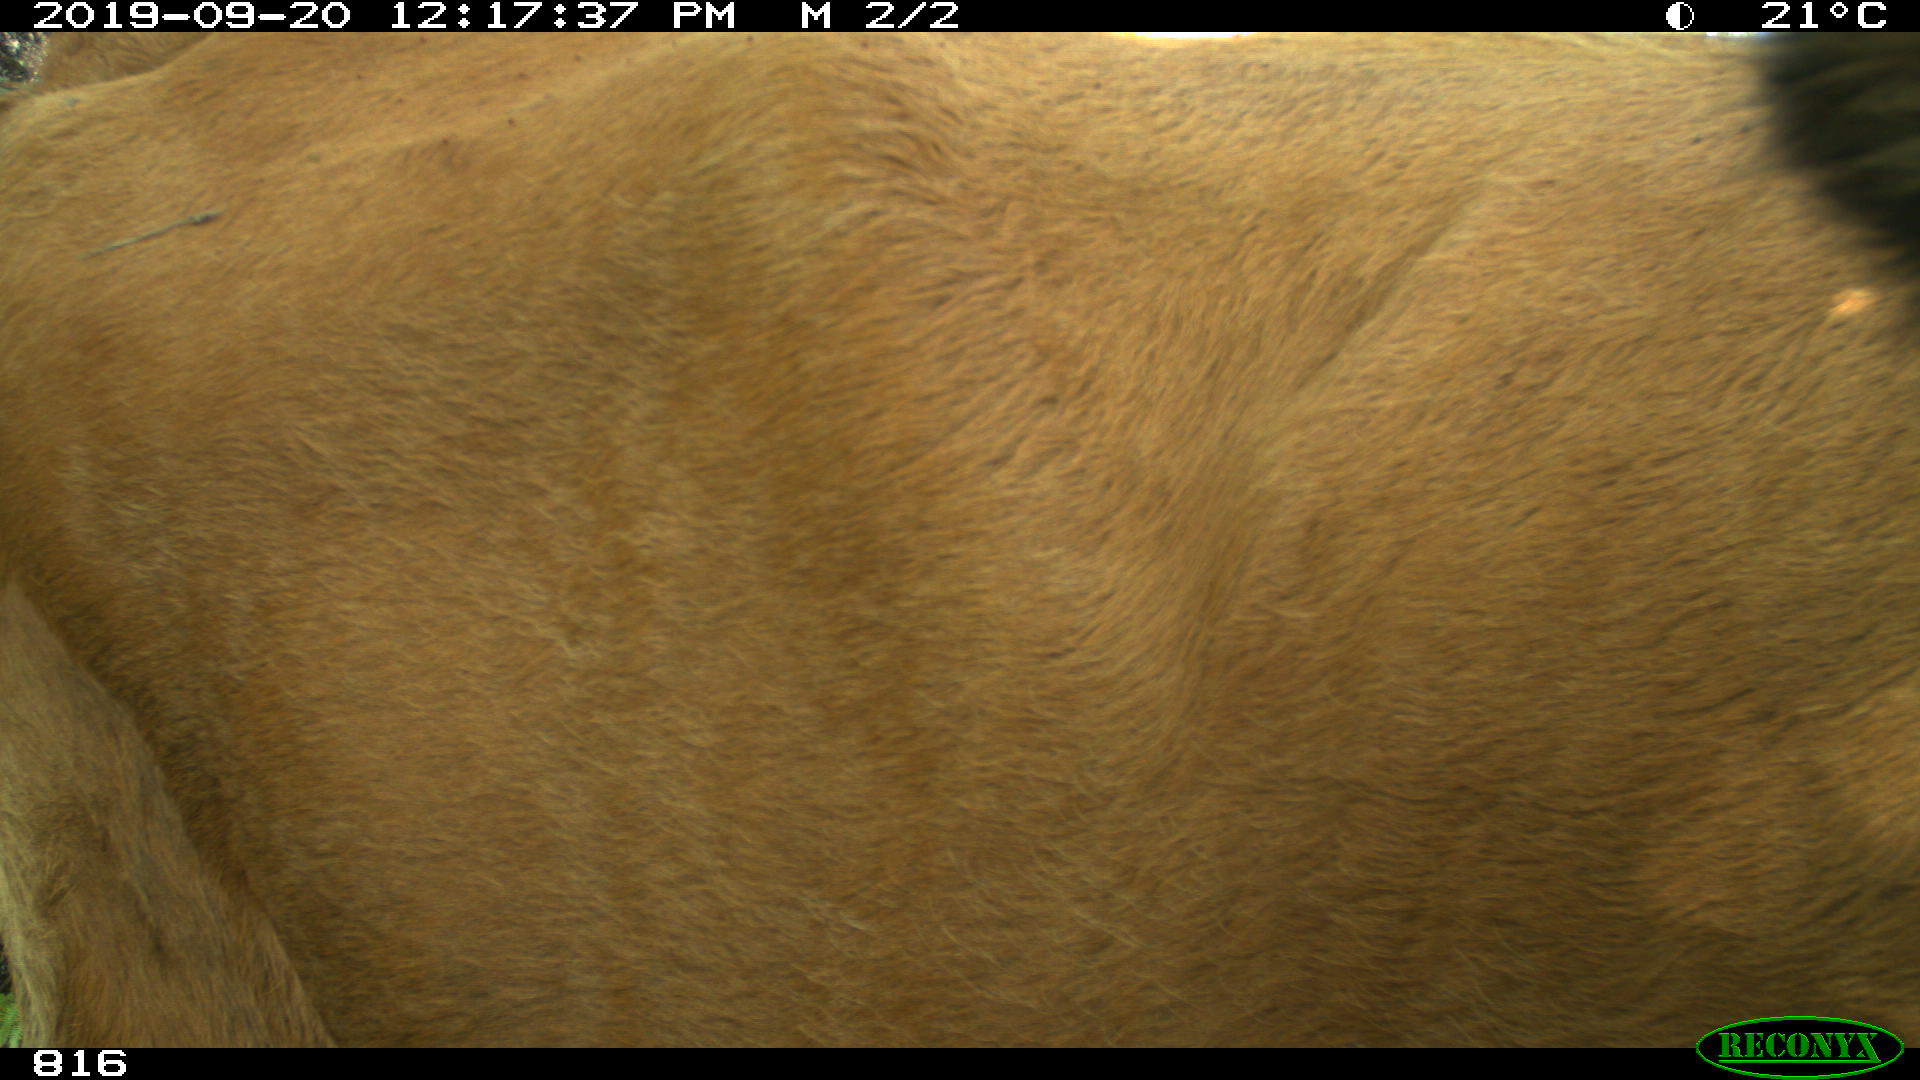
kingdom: Animalia
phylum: Chordata
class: Mammalia
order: Artiodactyla
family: Bovidae
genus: Bos
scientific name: Bos taurus
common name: Domesticated cattle
